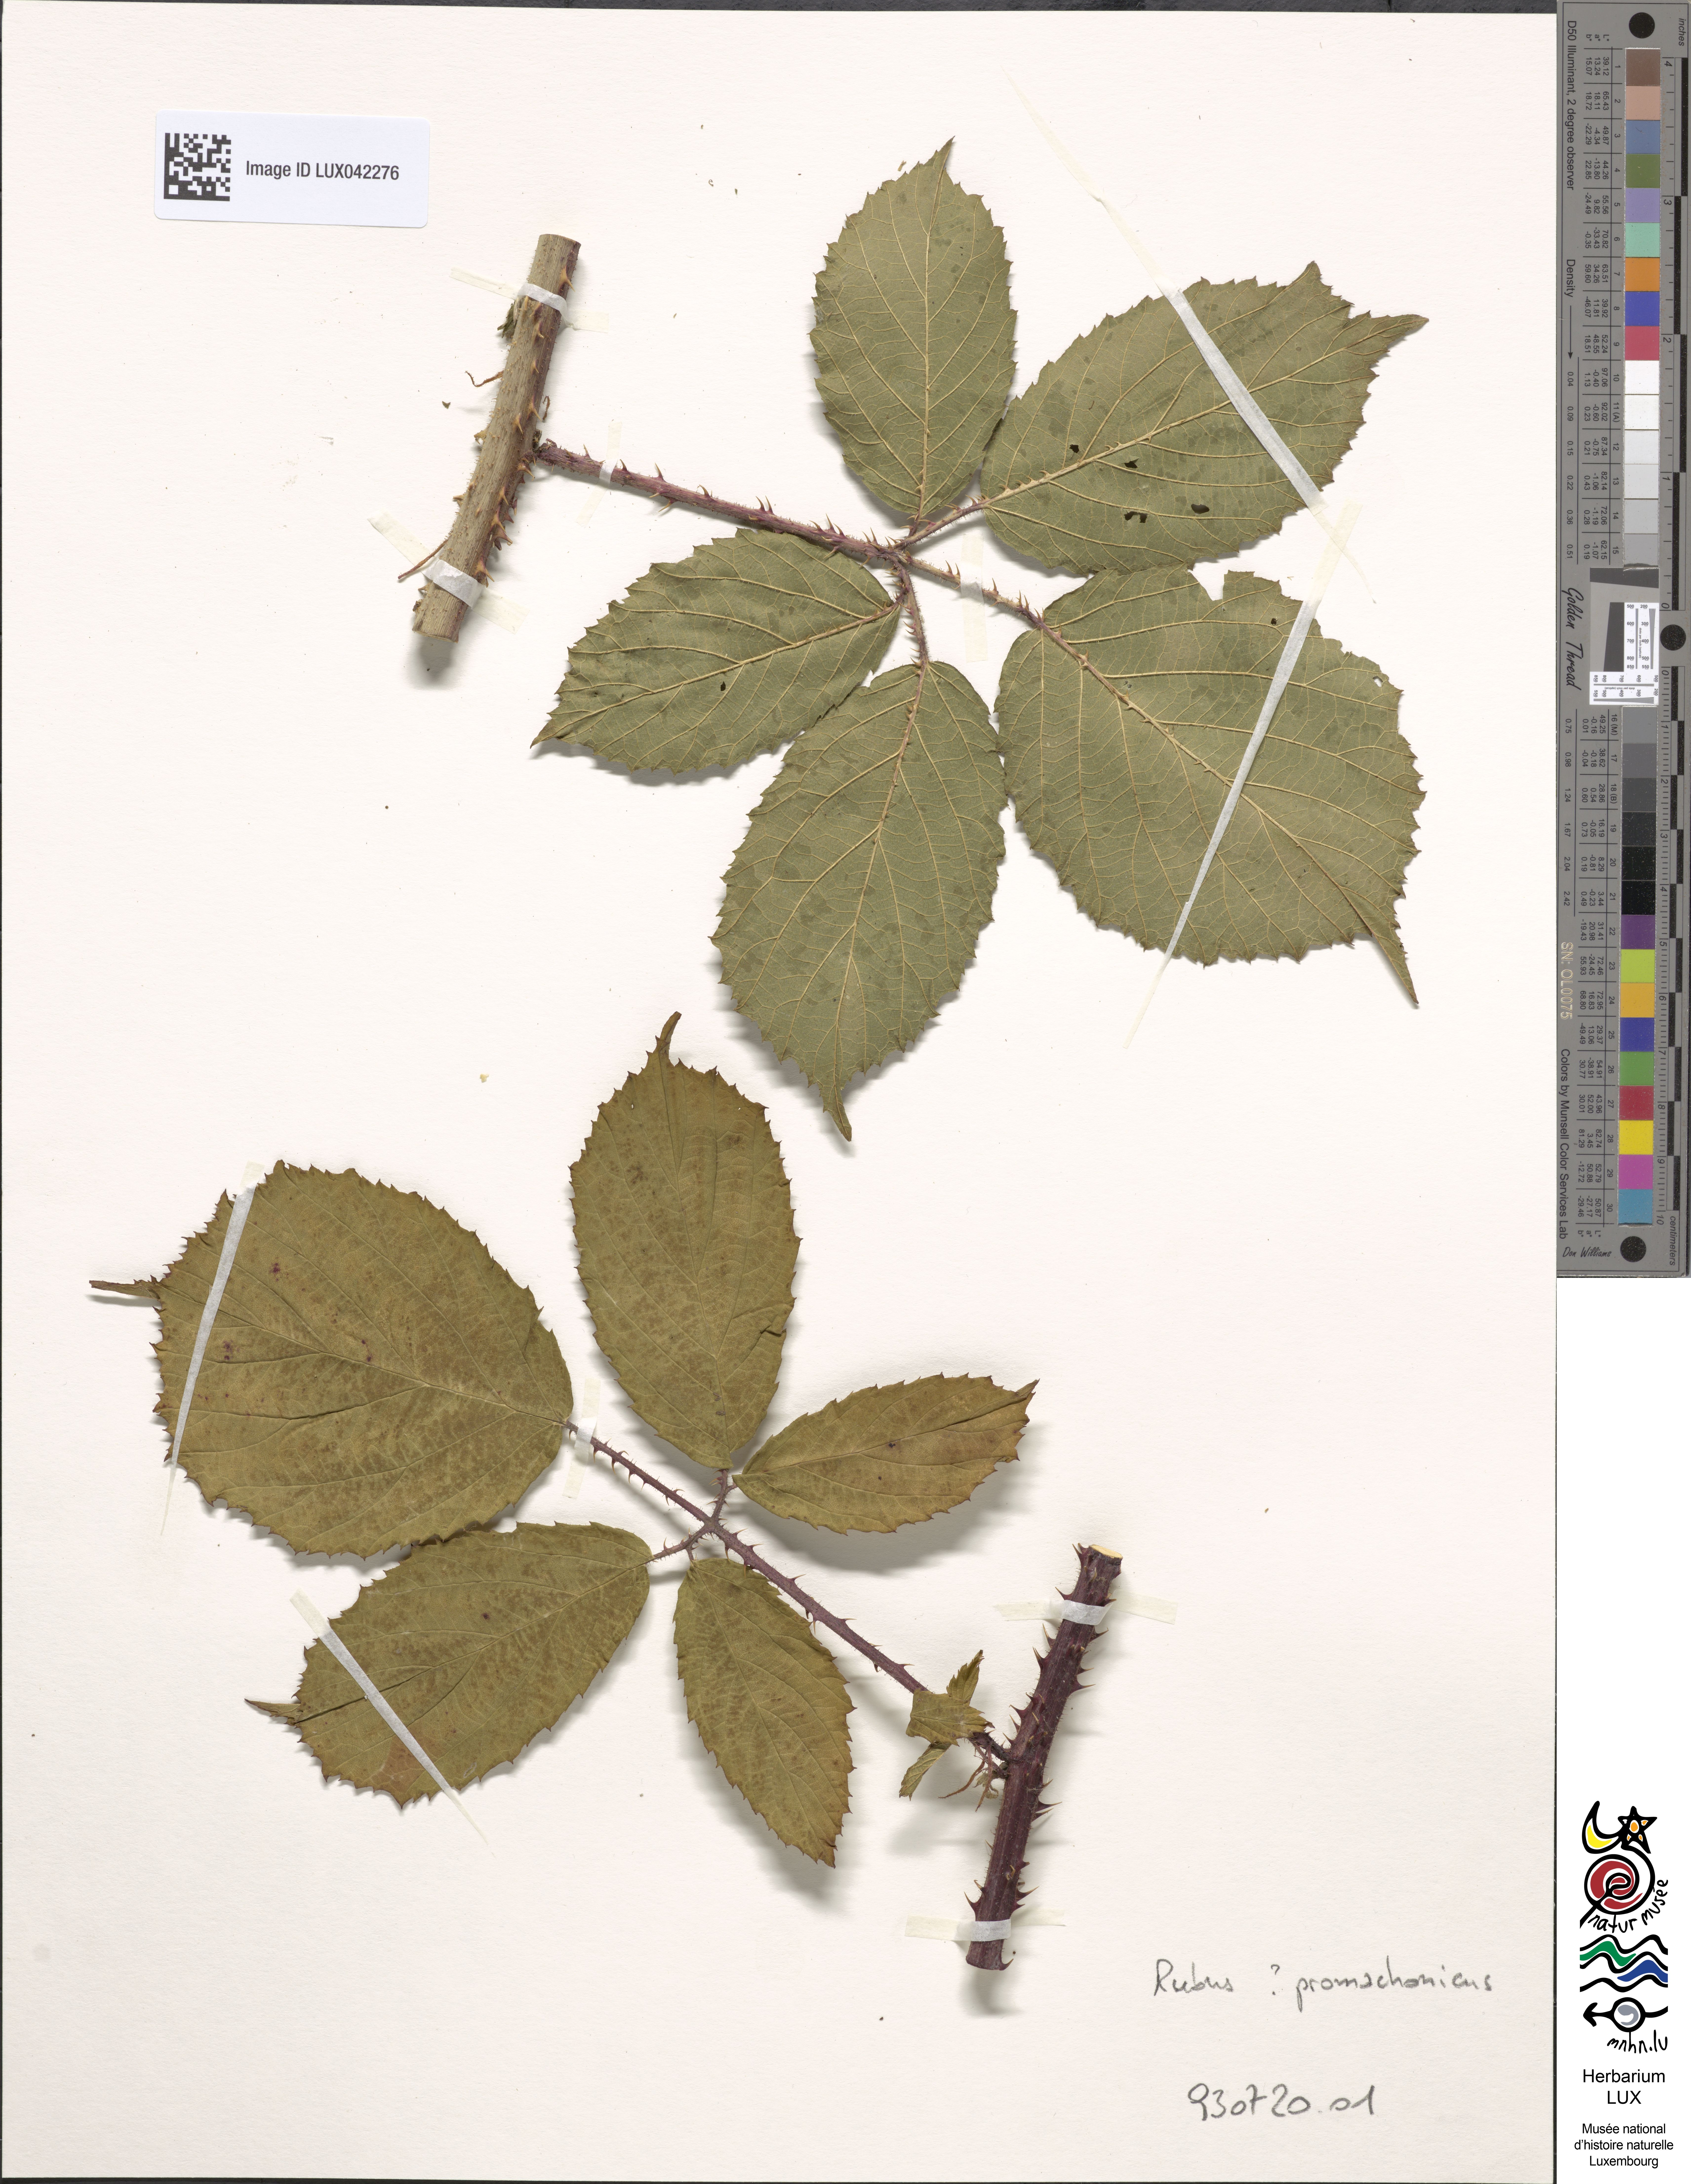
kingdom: Plantae
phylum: Tracheophyta
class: Magnoliopsida
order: Rosales
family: Rosaceae
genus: Rubus
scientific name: Rubus
